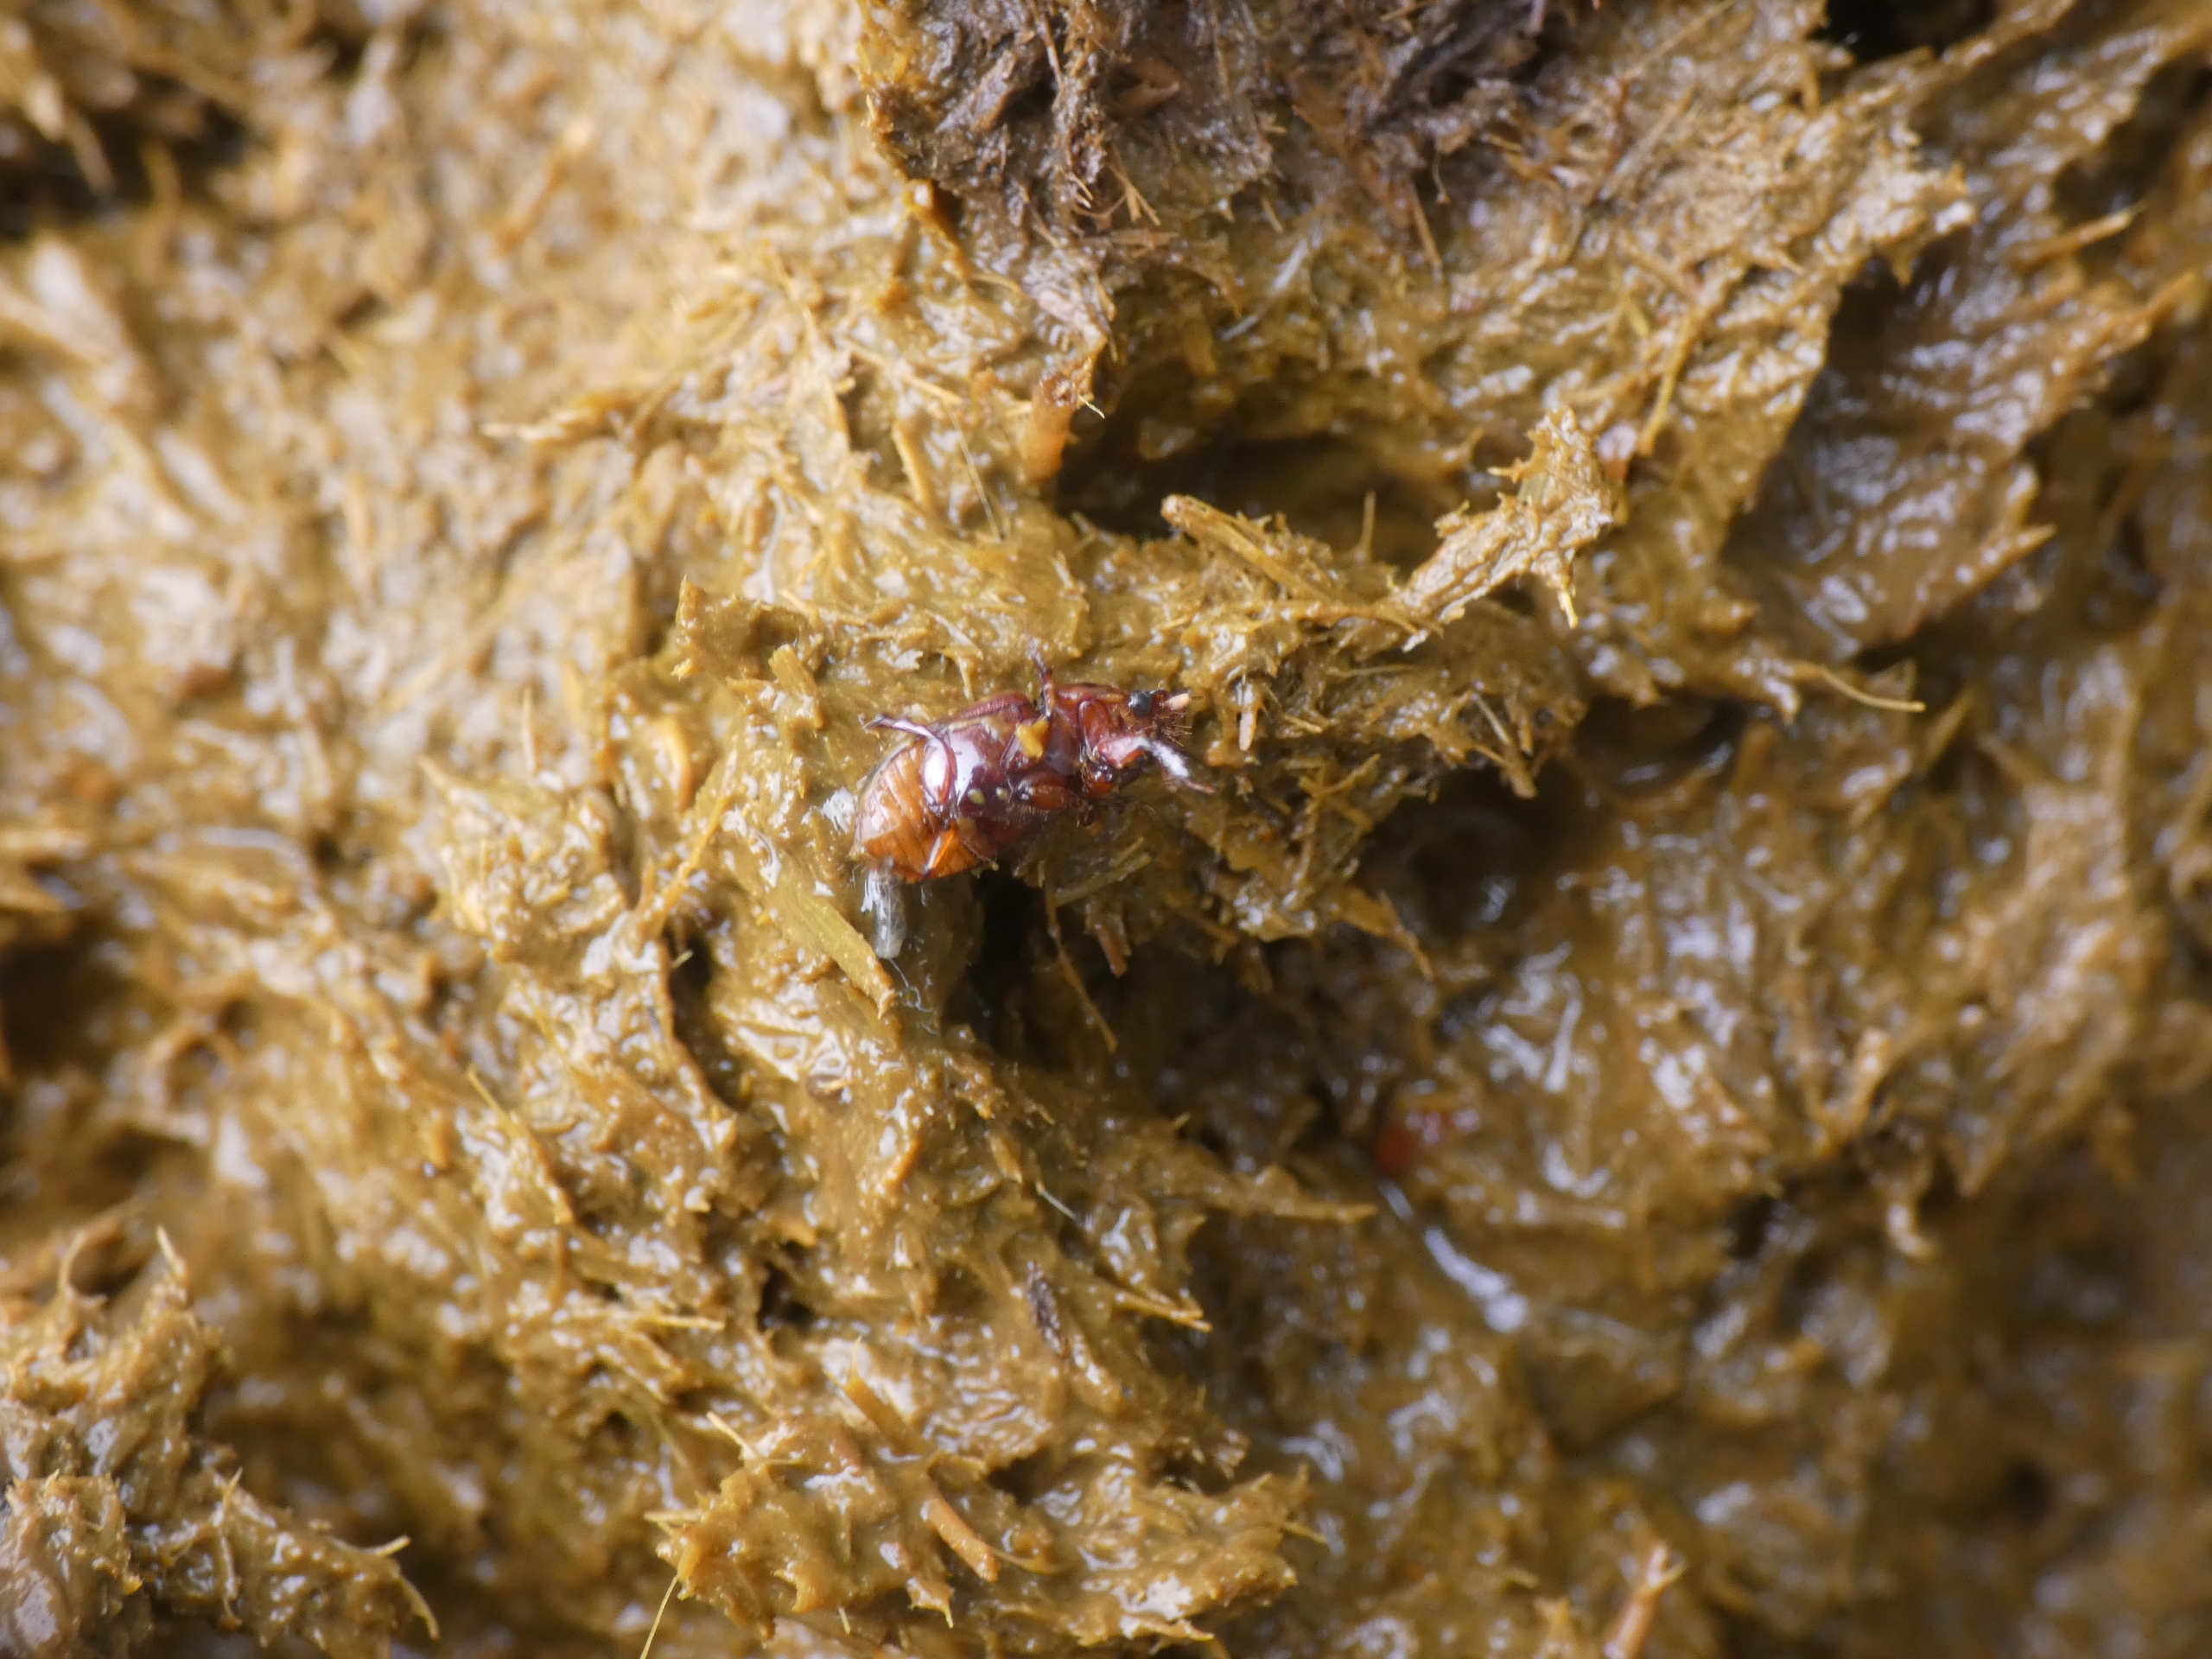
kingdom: Animalia
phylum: Arthropoda
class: Insecta
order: Coleoptera
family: Scarabaeidae
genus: Bodilopsis
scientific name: Bodilopsis rufus
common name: Mahognibrun møgbille
